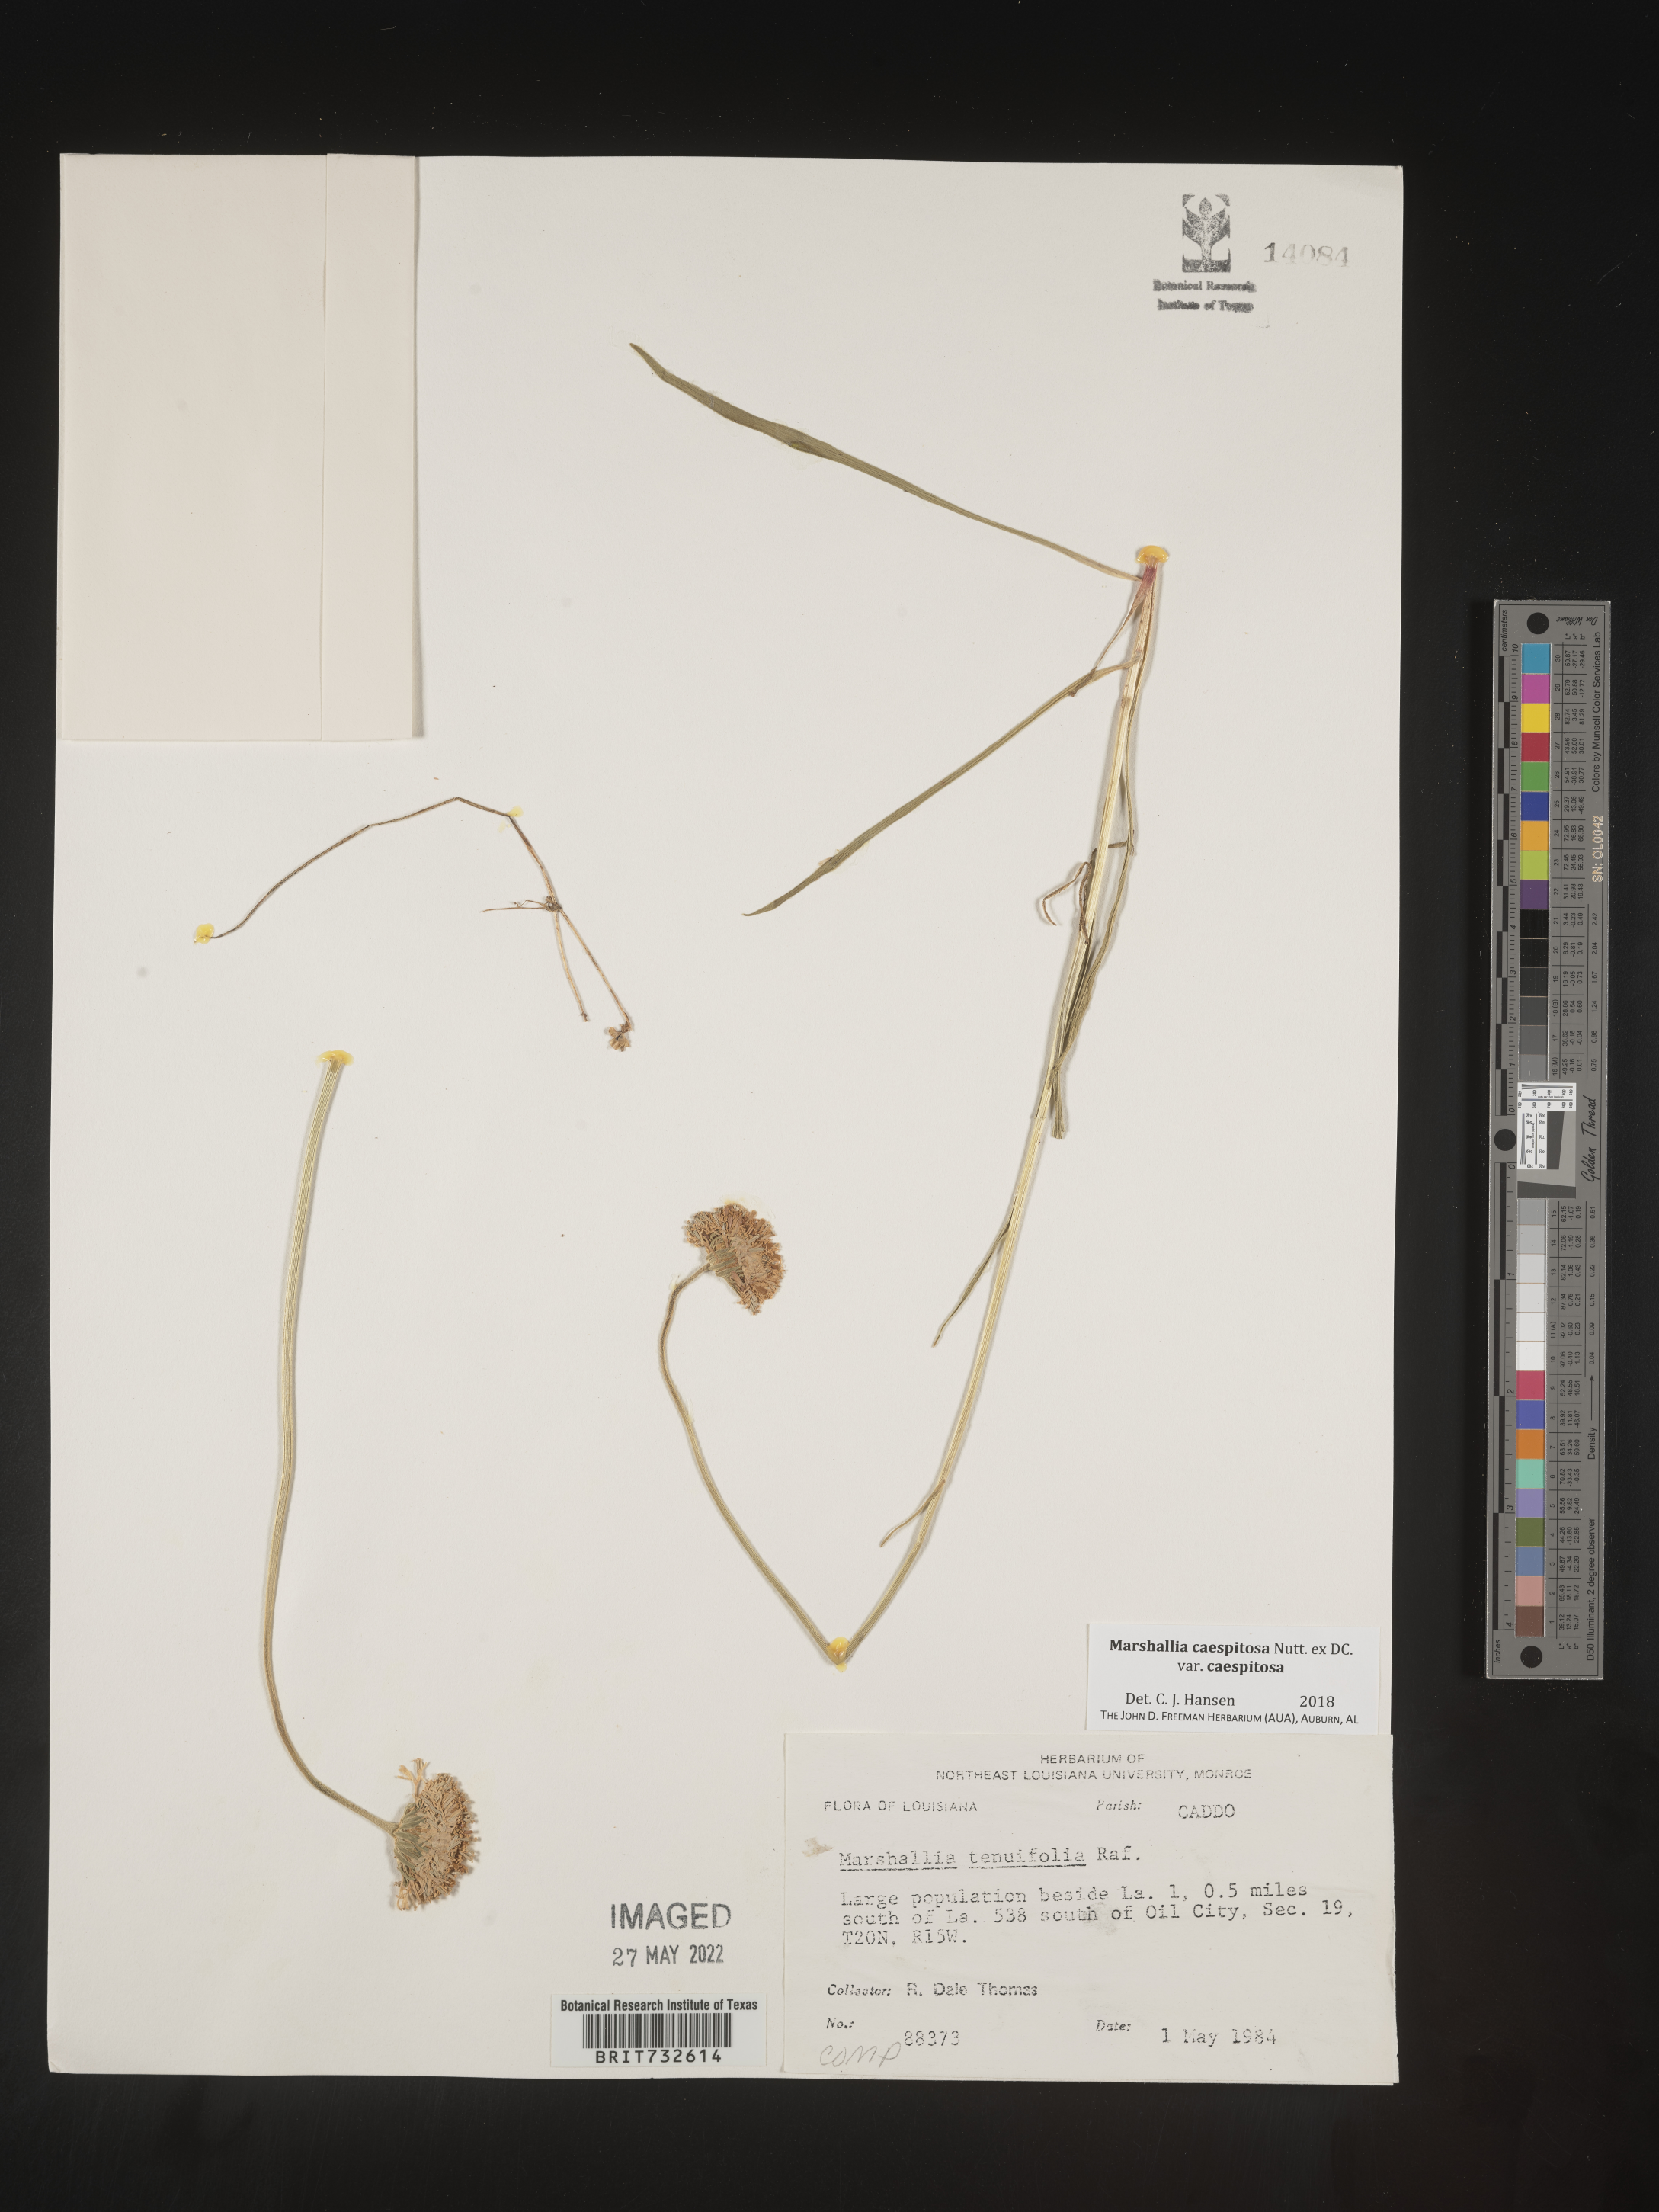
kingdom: Plantae
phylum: Tracheophyta
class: Magnoliopsida
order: Asterales
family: Asteraceae
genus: Marshallia
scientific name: Marshallia caespitosa
